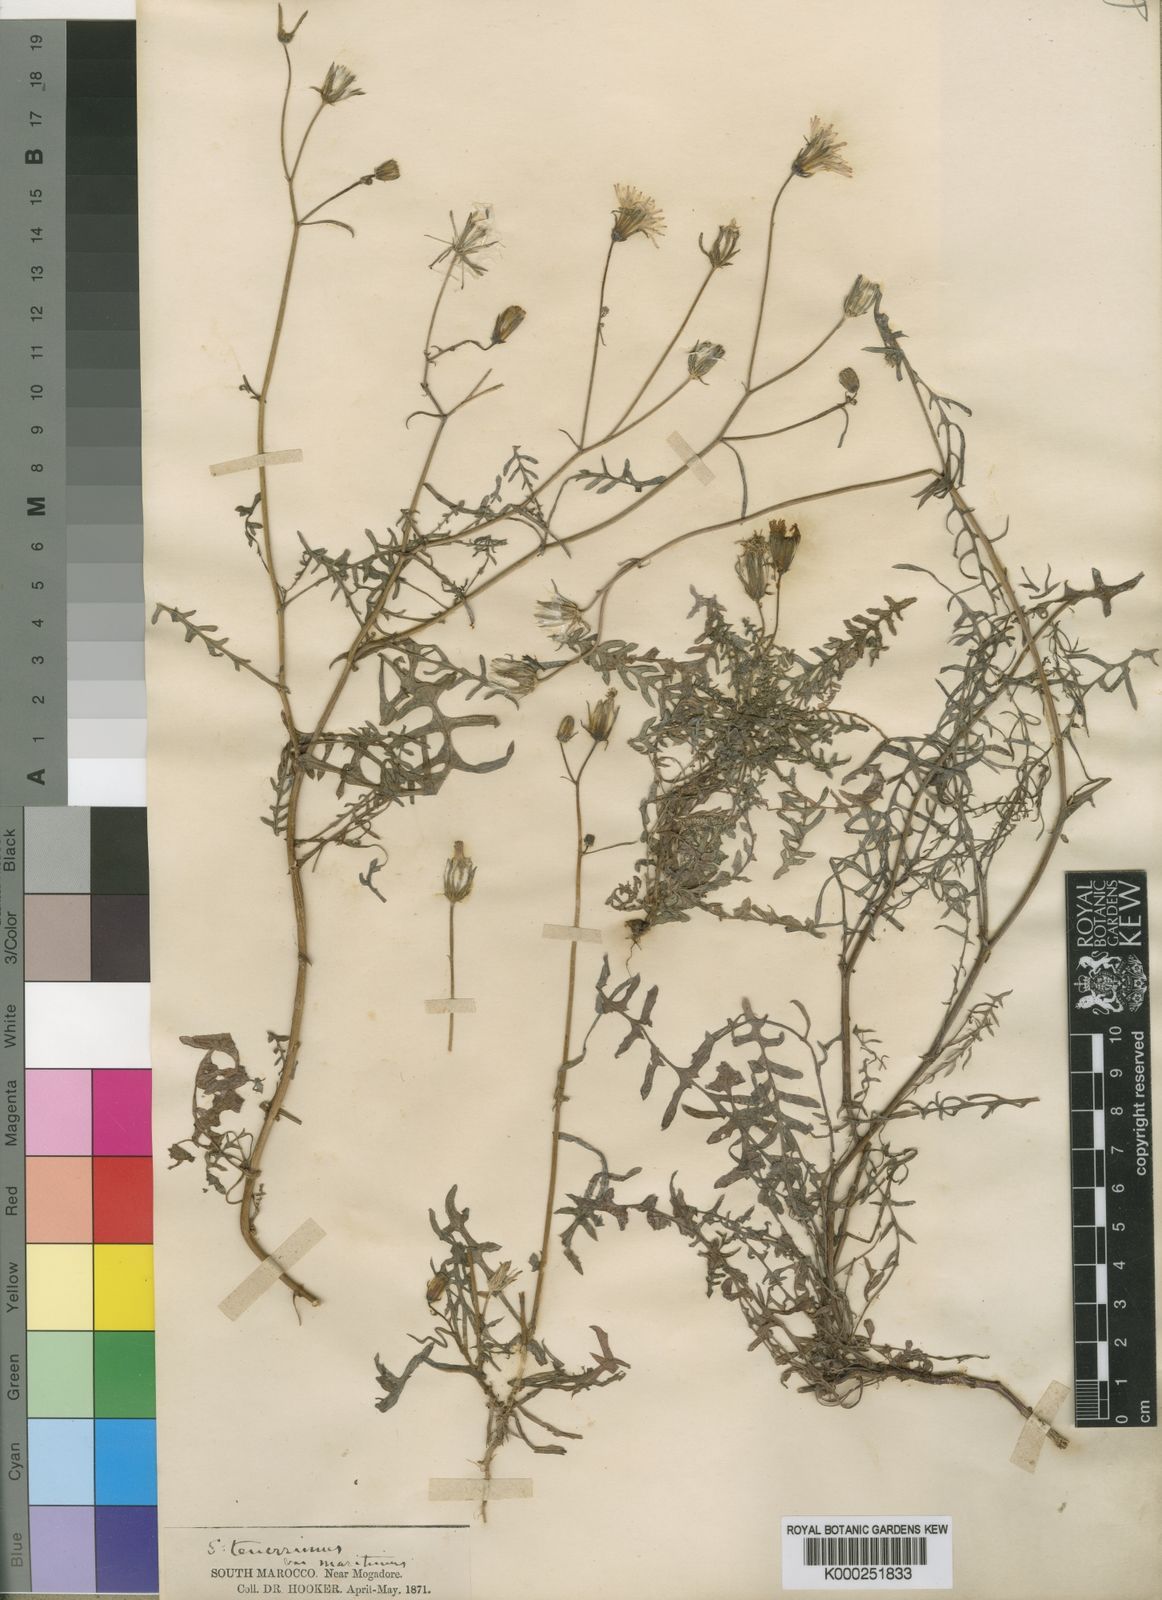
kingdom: Plantae
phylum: Tracheophyta
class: Magnoliopsida
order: Asterales
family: Asteraceae
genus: Sonchus
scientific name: Sonchus tenerrimus
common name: Clammy sowthistle
